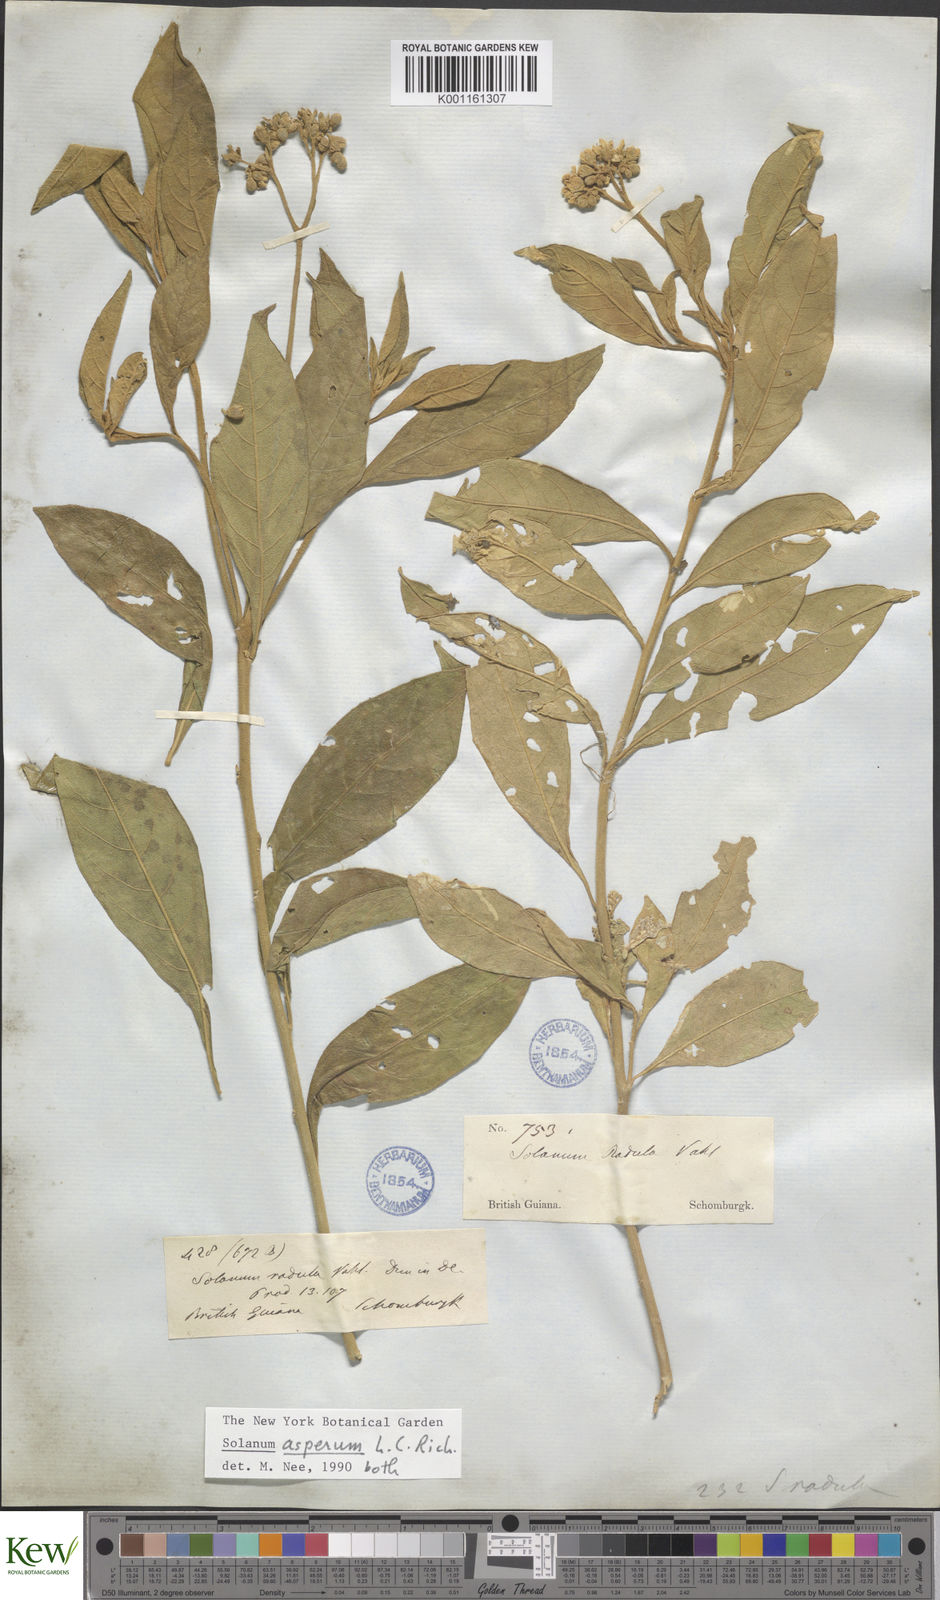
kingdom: Plantae
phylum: Tracheophyta
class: Magnoliopsida
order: Solanales
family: Solanaceae
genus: Solanum
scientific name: Solanum asperum
